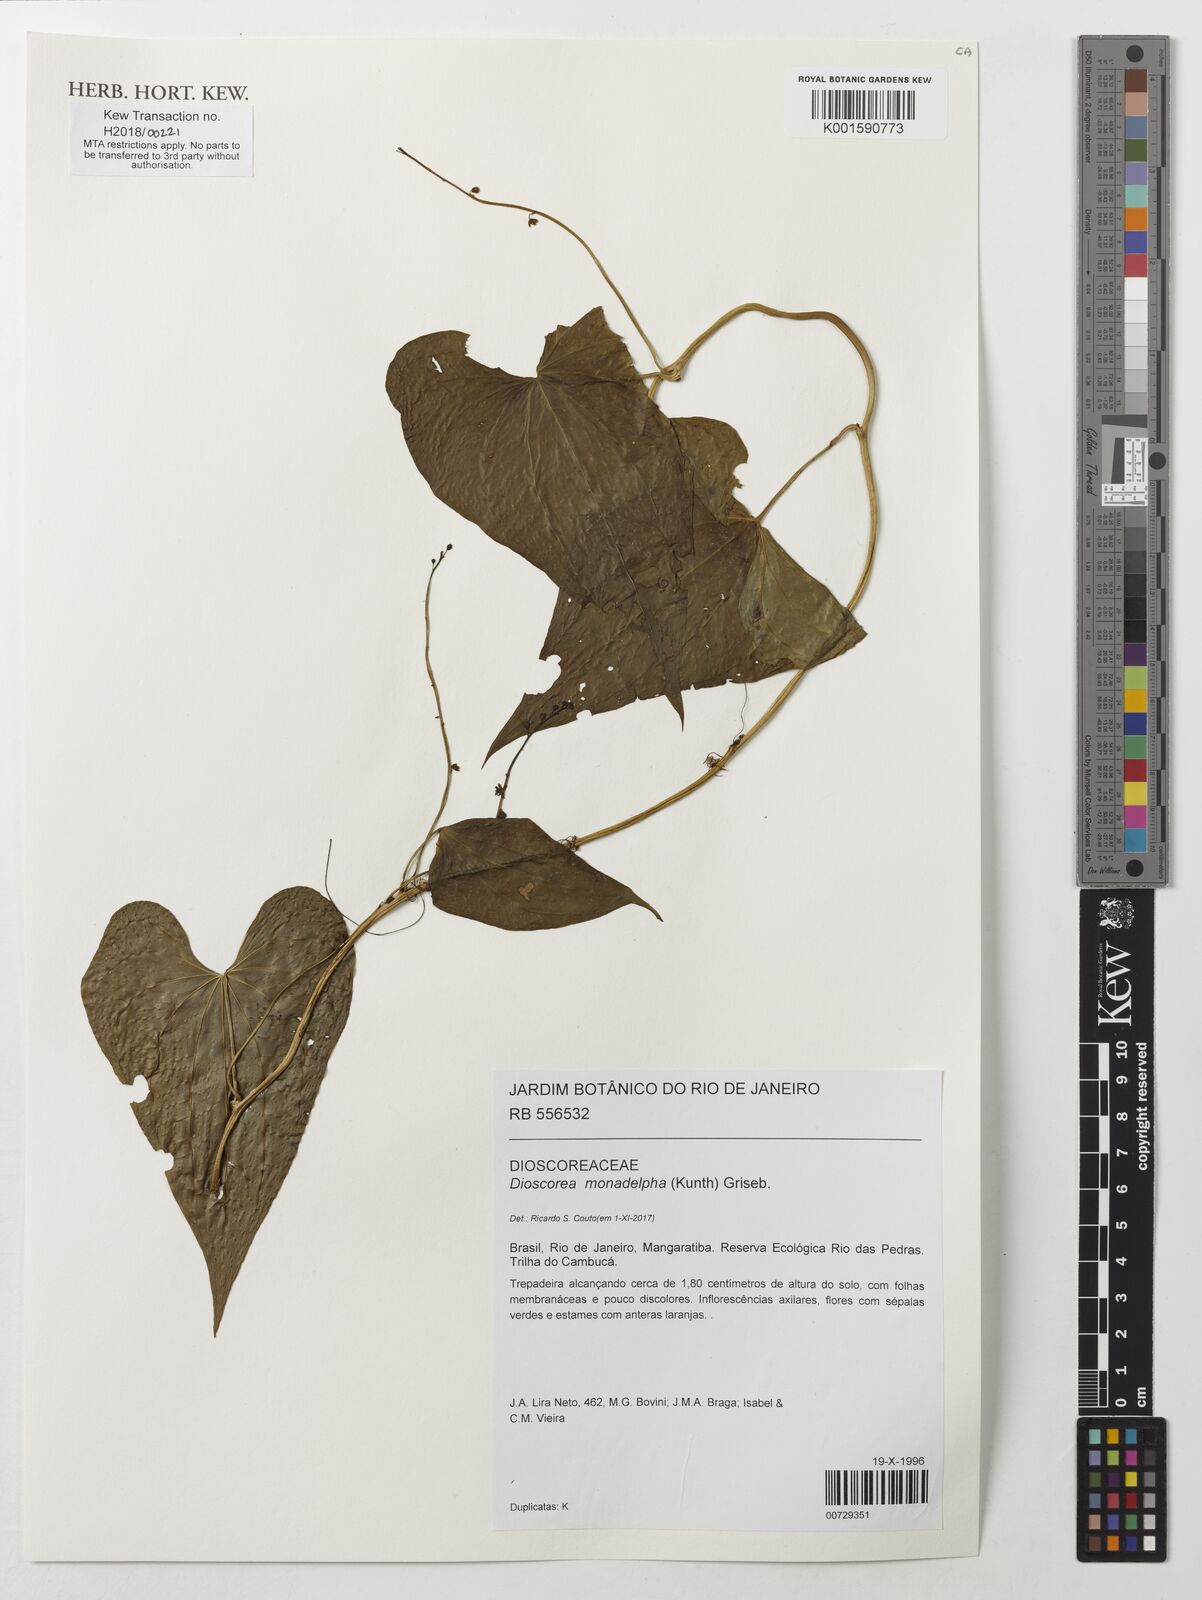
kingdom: Plantae
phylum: Tracheophyta
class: Liliopsida
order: Dioscoreales
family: Dioscoreaceae
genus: Dioscorea
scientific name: Dioscorea monadelpha
